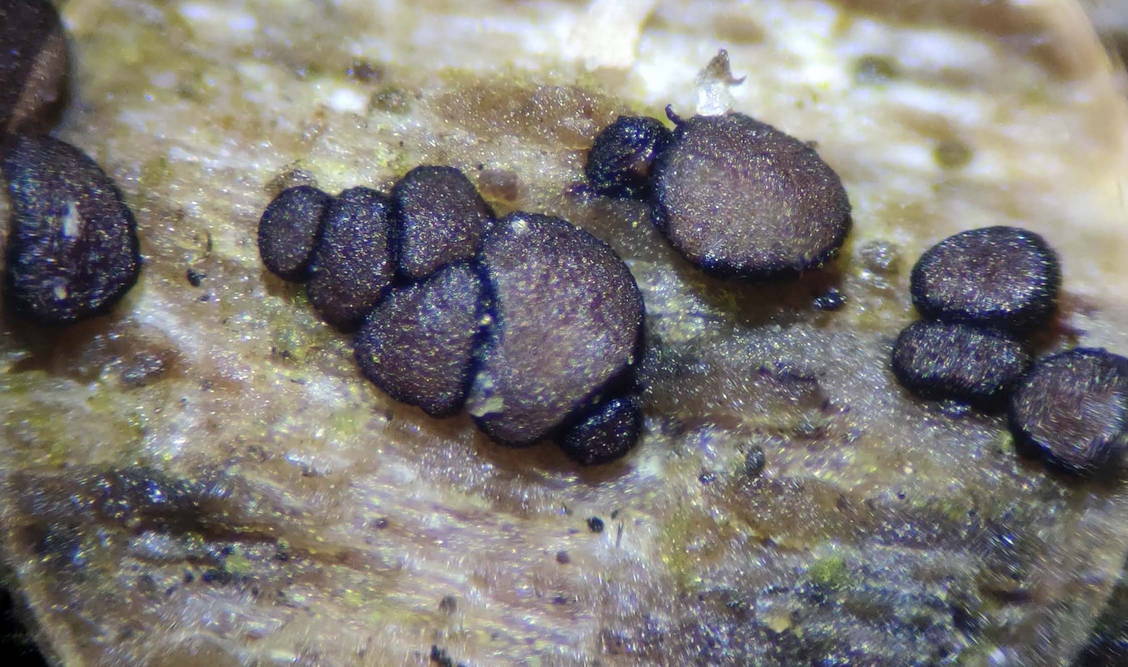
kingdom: Fungi
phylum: Ascomycota
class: Leotiomycetes
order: Helotiales
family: Patellariopsidaceae
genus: Patellariopsis
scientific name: Patellariopsis atrovinosa
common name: mørk vinskive
